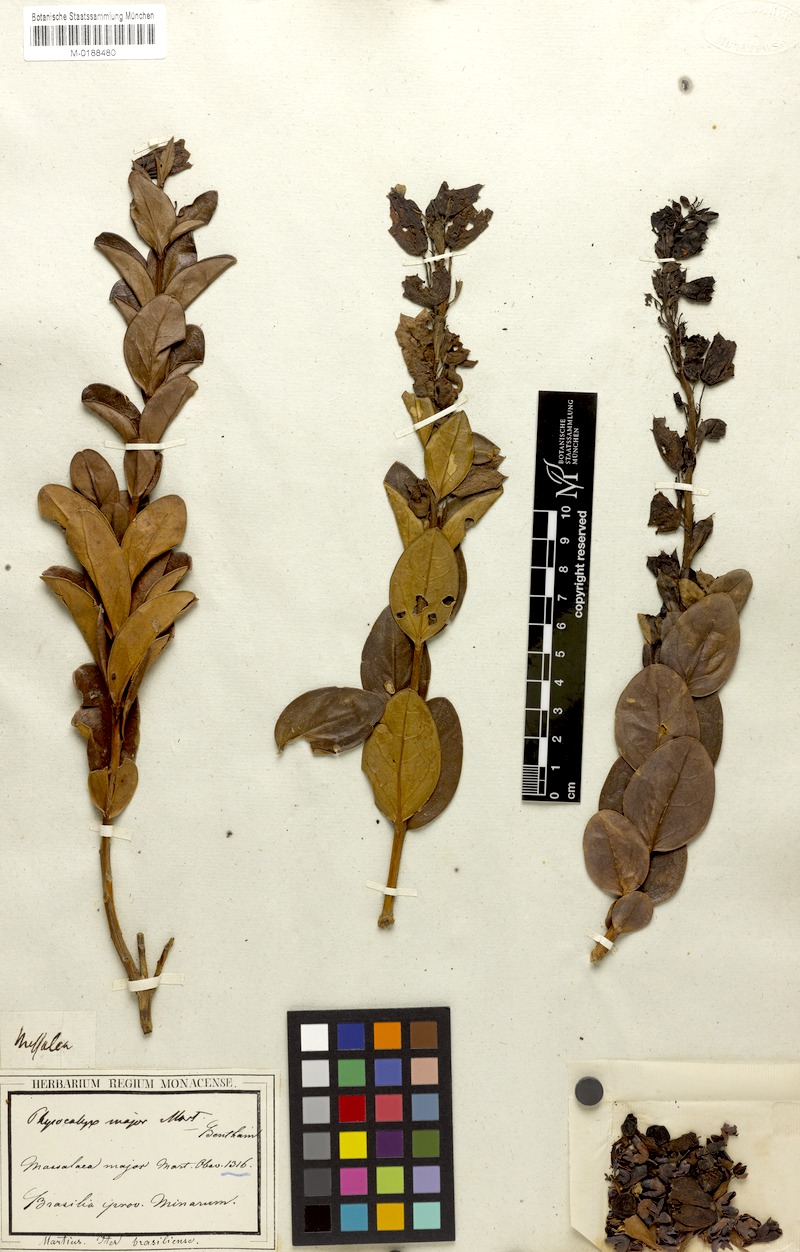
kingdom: Plantae
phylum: Tracheophyta
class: Magnoliopsida
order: Lamiales
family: Orobanchaceae
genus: Physocalyx
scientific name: Physocalyx major
